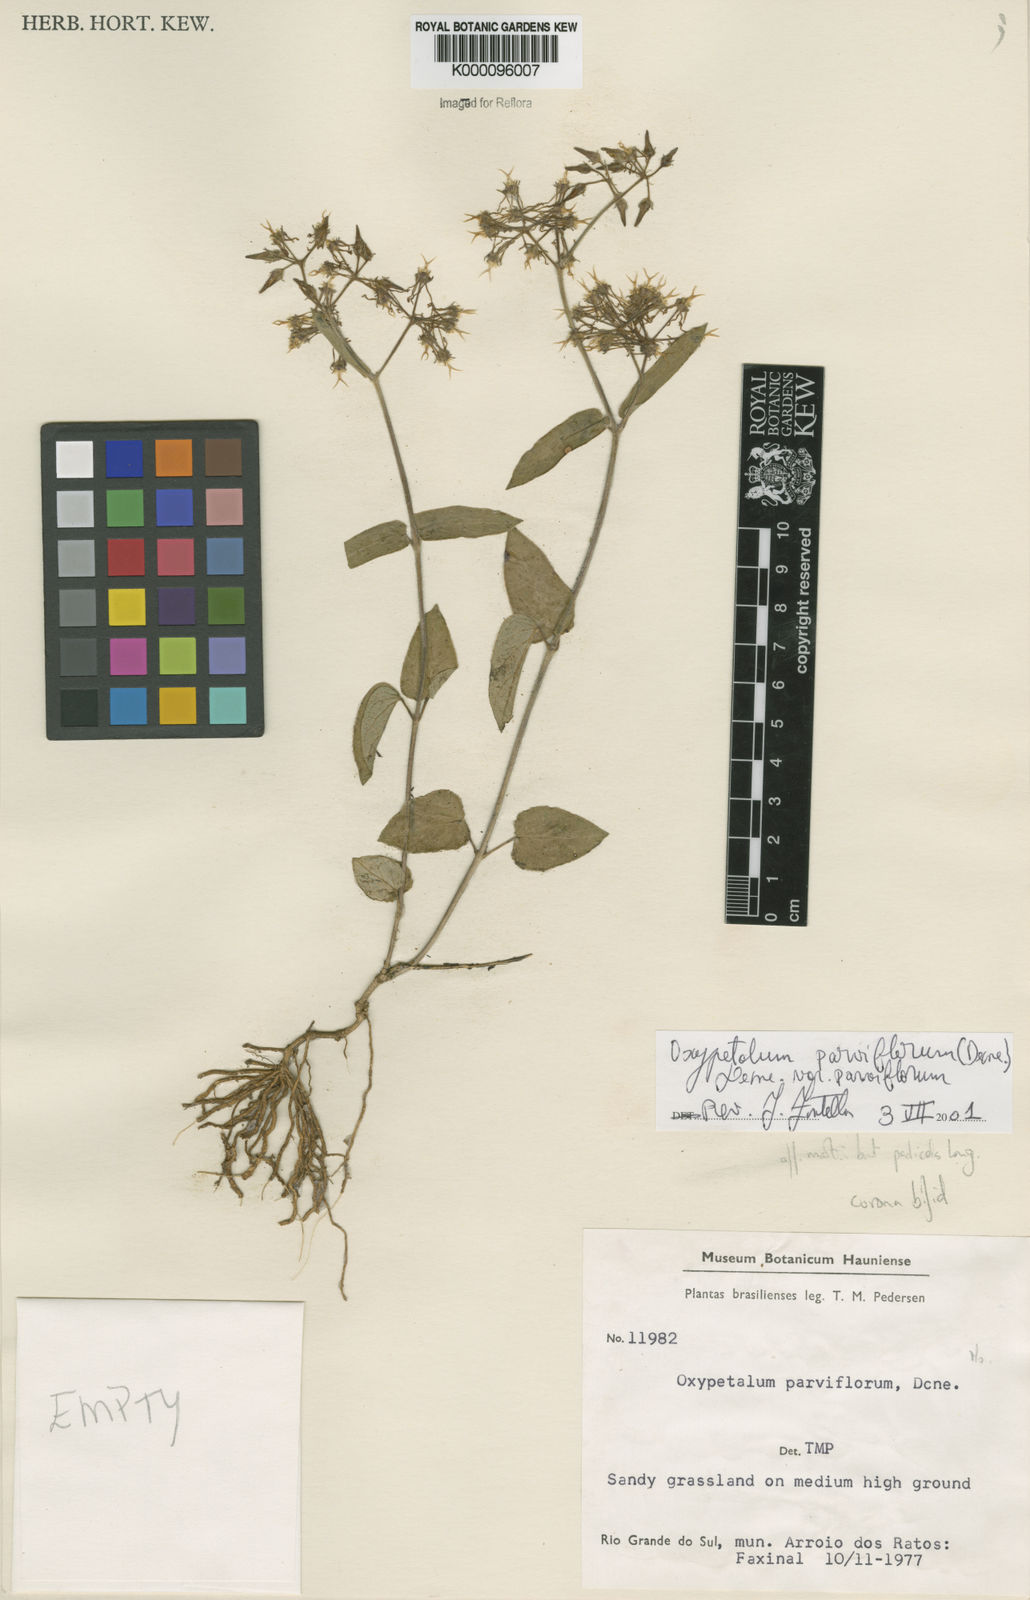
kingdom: Plantae
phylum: Tracheophyta
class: Magnoliopsida
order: Gentianales
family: Apocynaceae
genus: Oxypetalum
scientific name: Oxypetalum parviflorum
